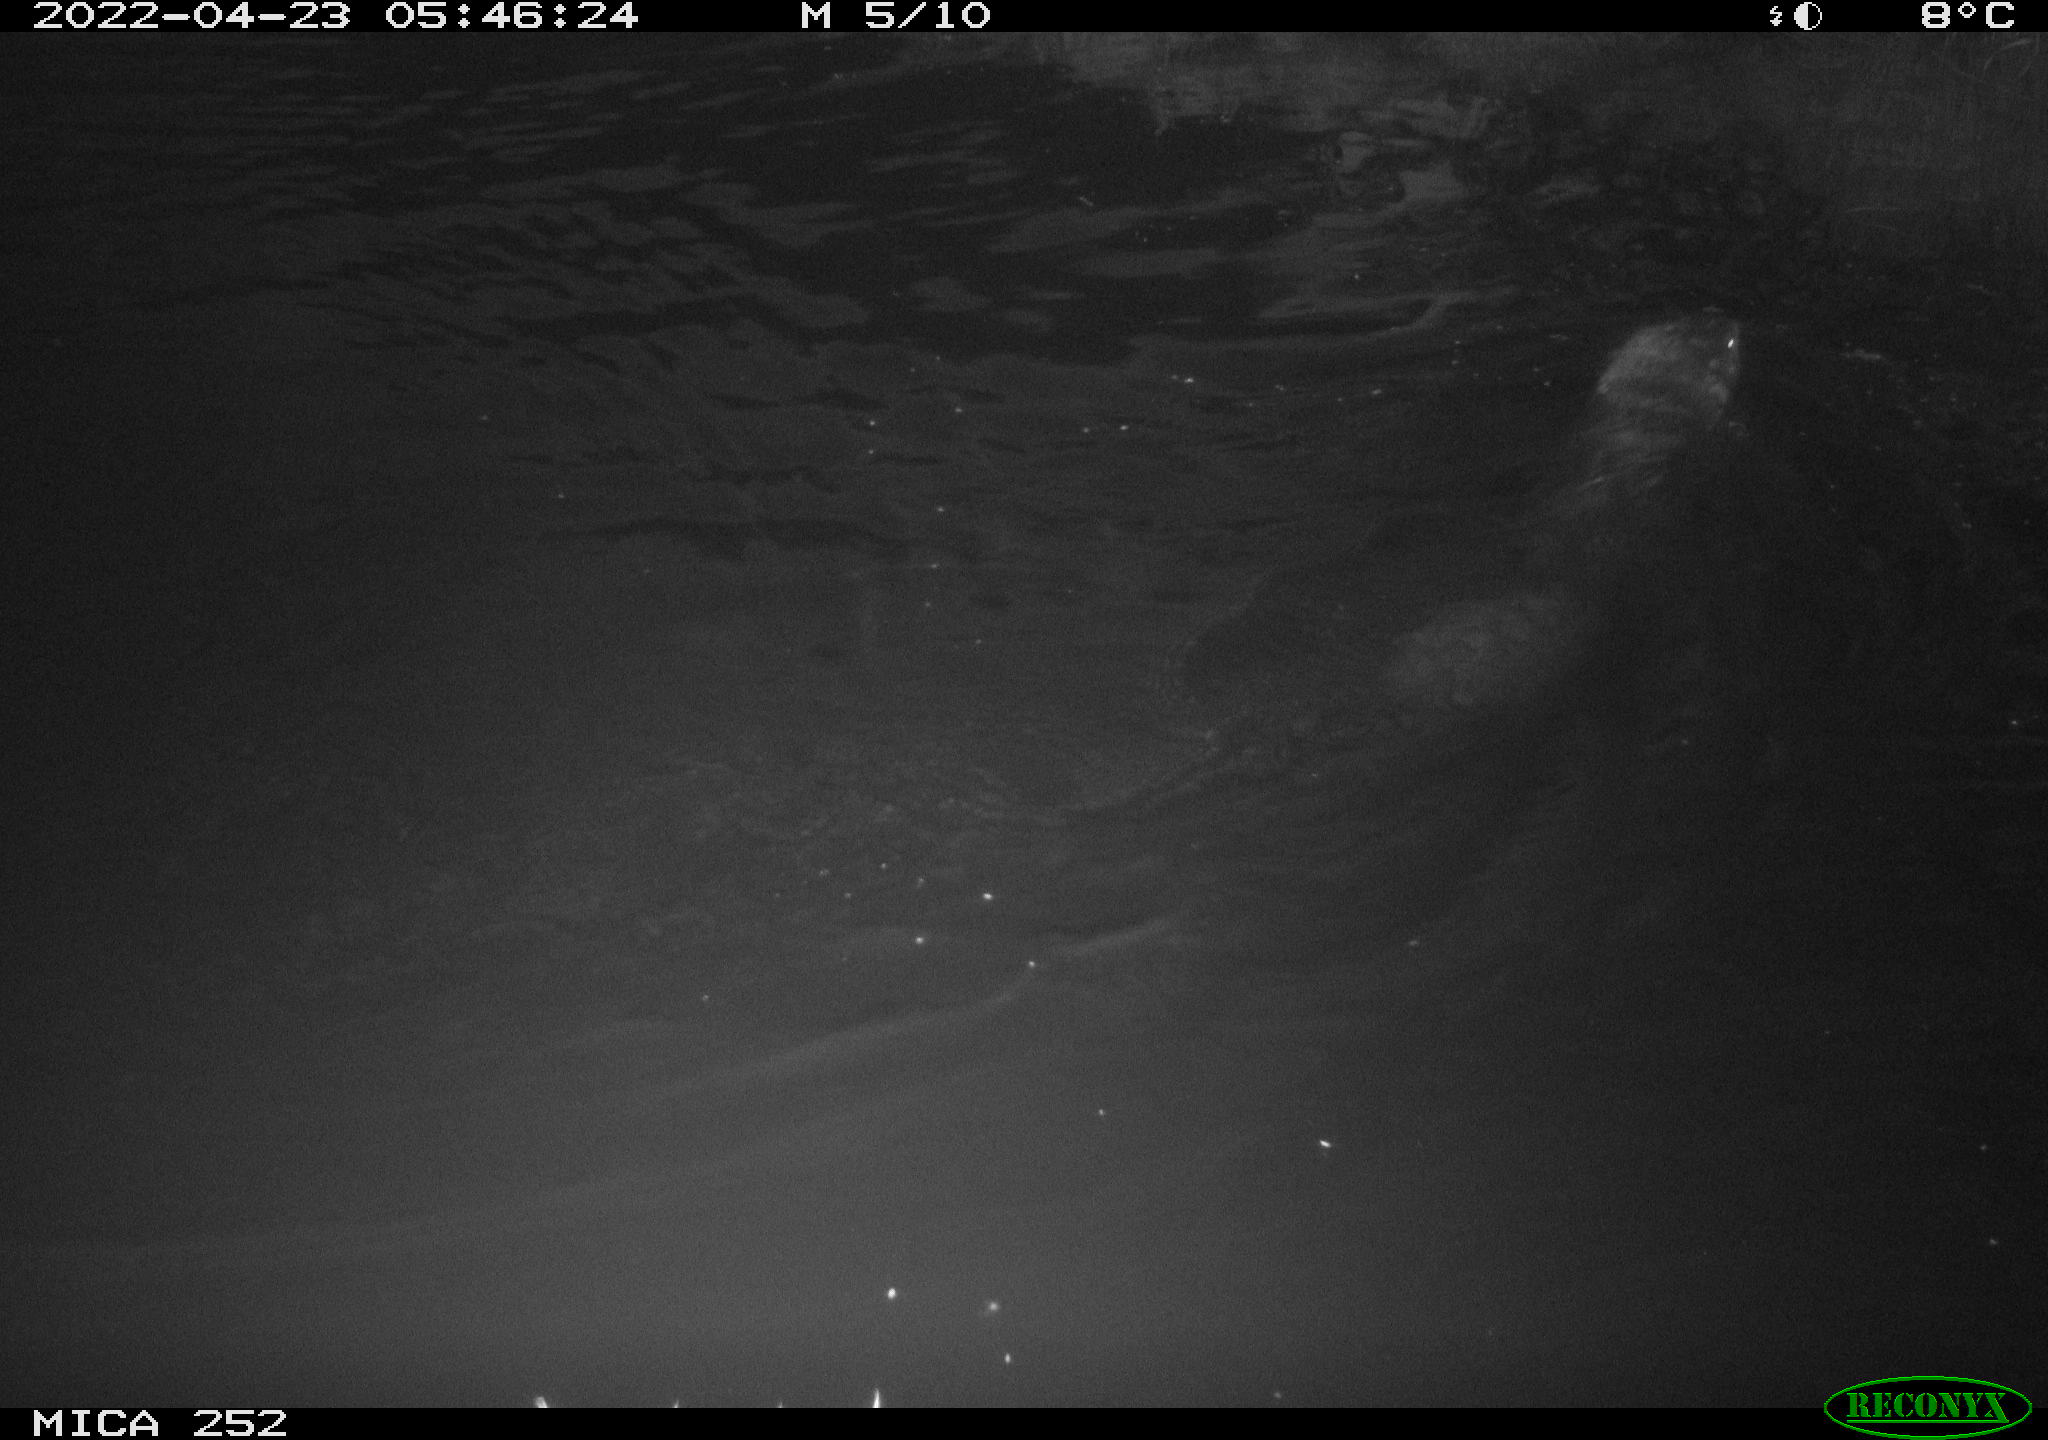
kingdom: Animalia
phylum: Chordata
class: Mammalia
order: Rodentia
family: Castoridae
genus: Castor
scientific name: Castor fiber
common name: Eurasian beaver
